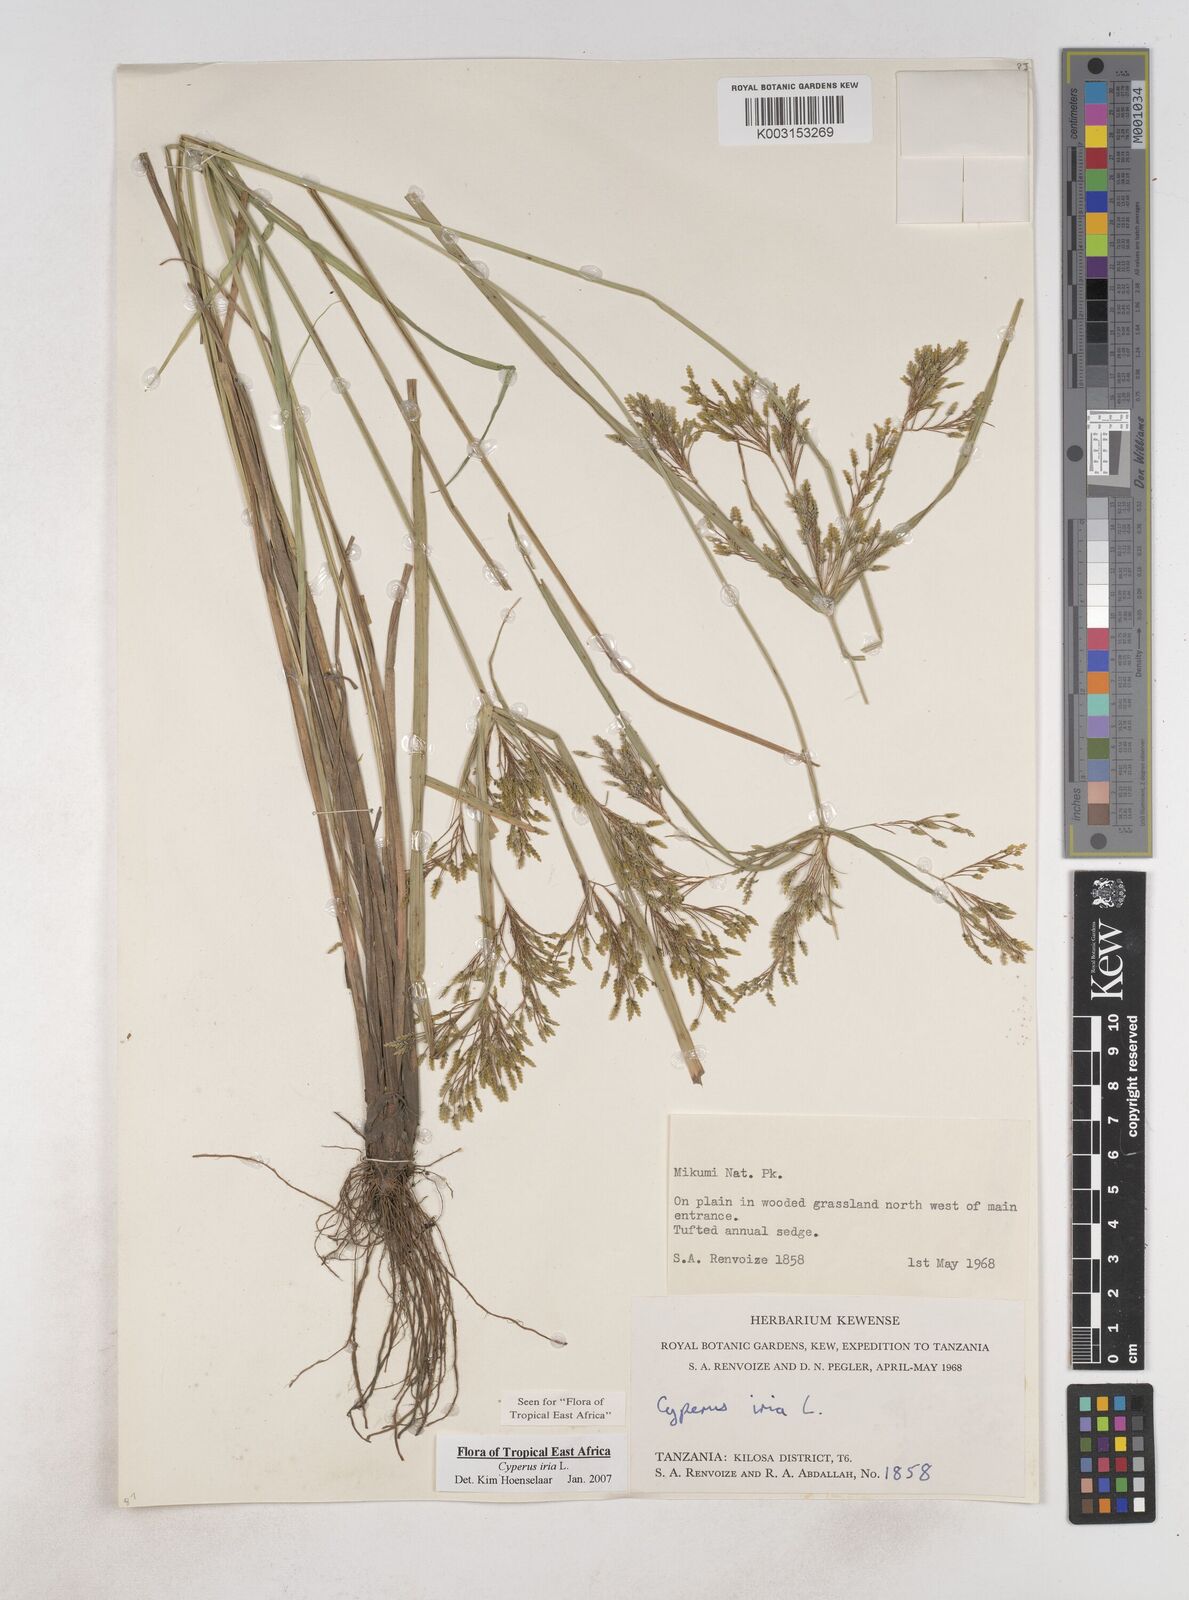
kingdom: Plantae
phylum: Tracheophyta
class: Liliopsida
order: Poales
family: Cyperaceae
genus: Cyperus
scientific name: Cyperus iria
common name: Ricefield flatsedge
